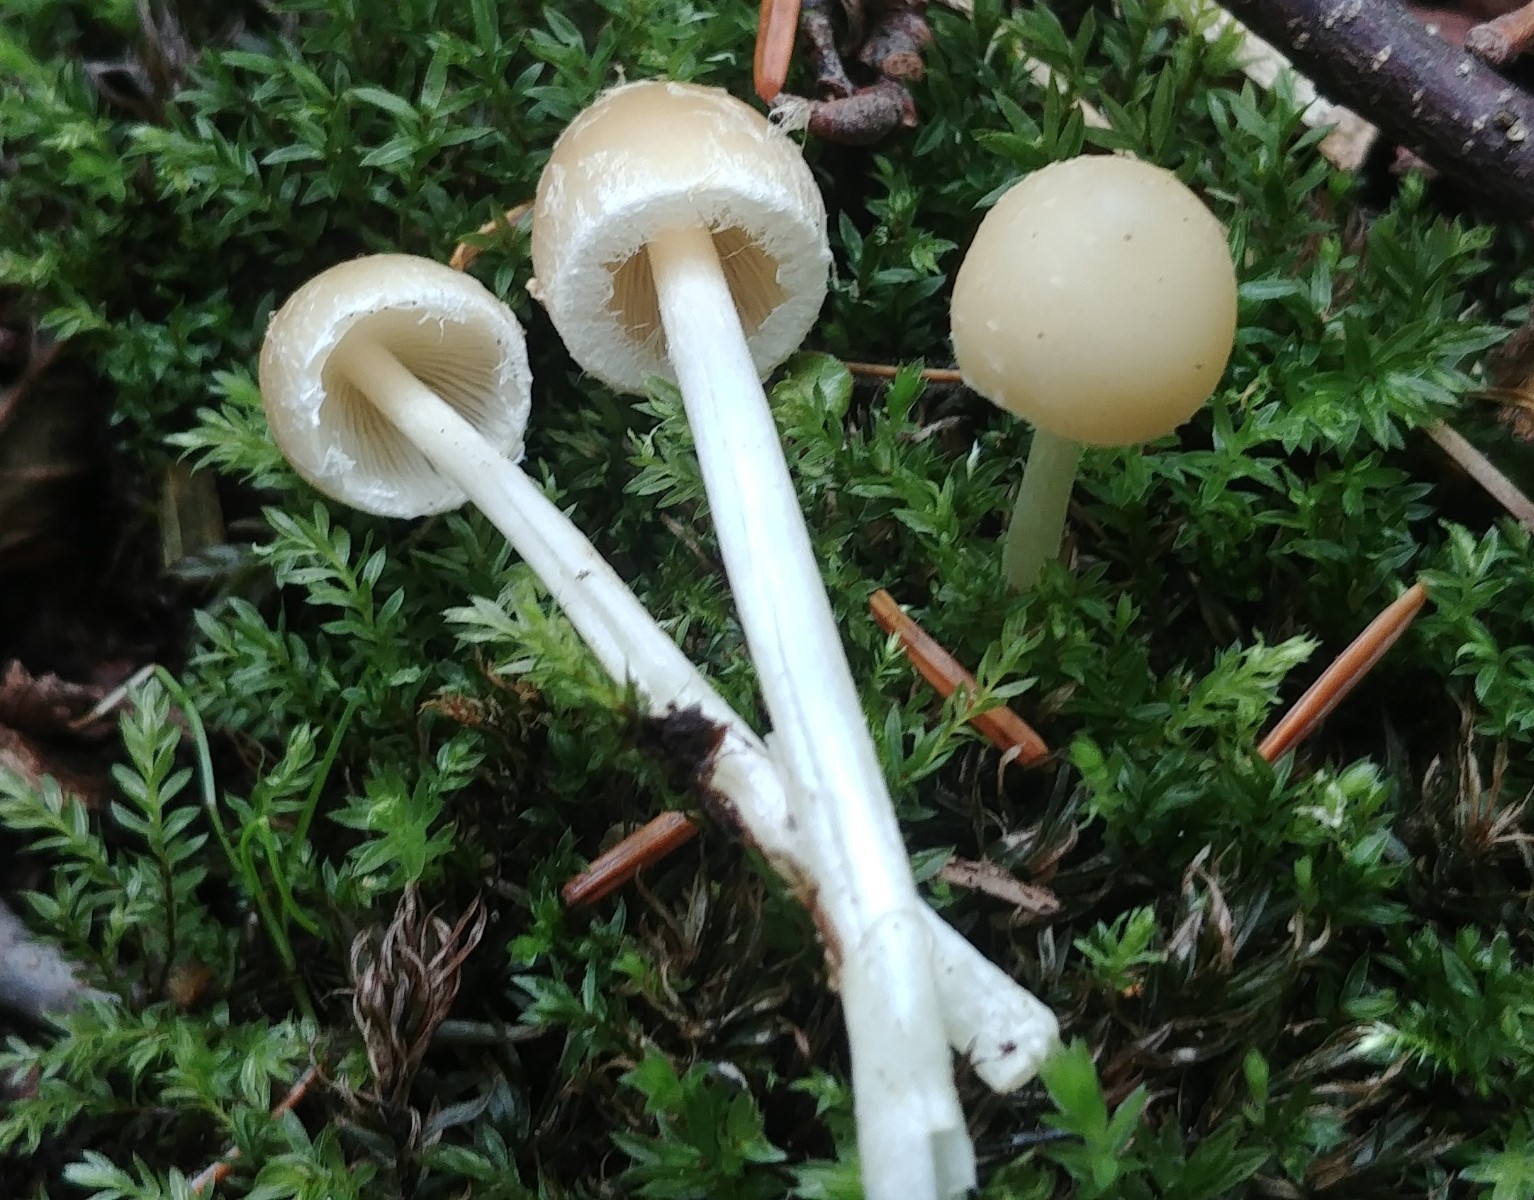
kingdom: Fungi
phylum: Basidiomycota
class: Agaricomycetes
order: Agaricales
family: Psathyrellaceae
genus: Candolleomyces
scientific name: Candolleomyces candolleanus
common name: Candolles mørkhat
